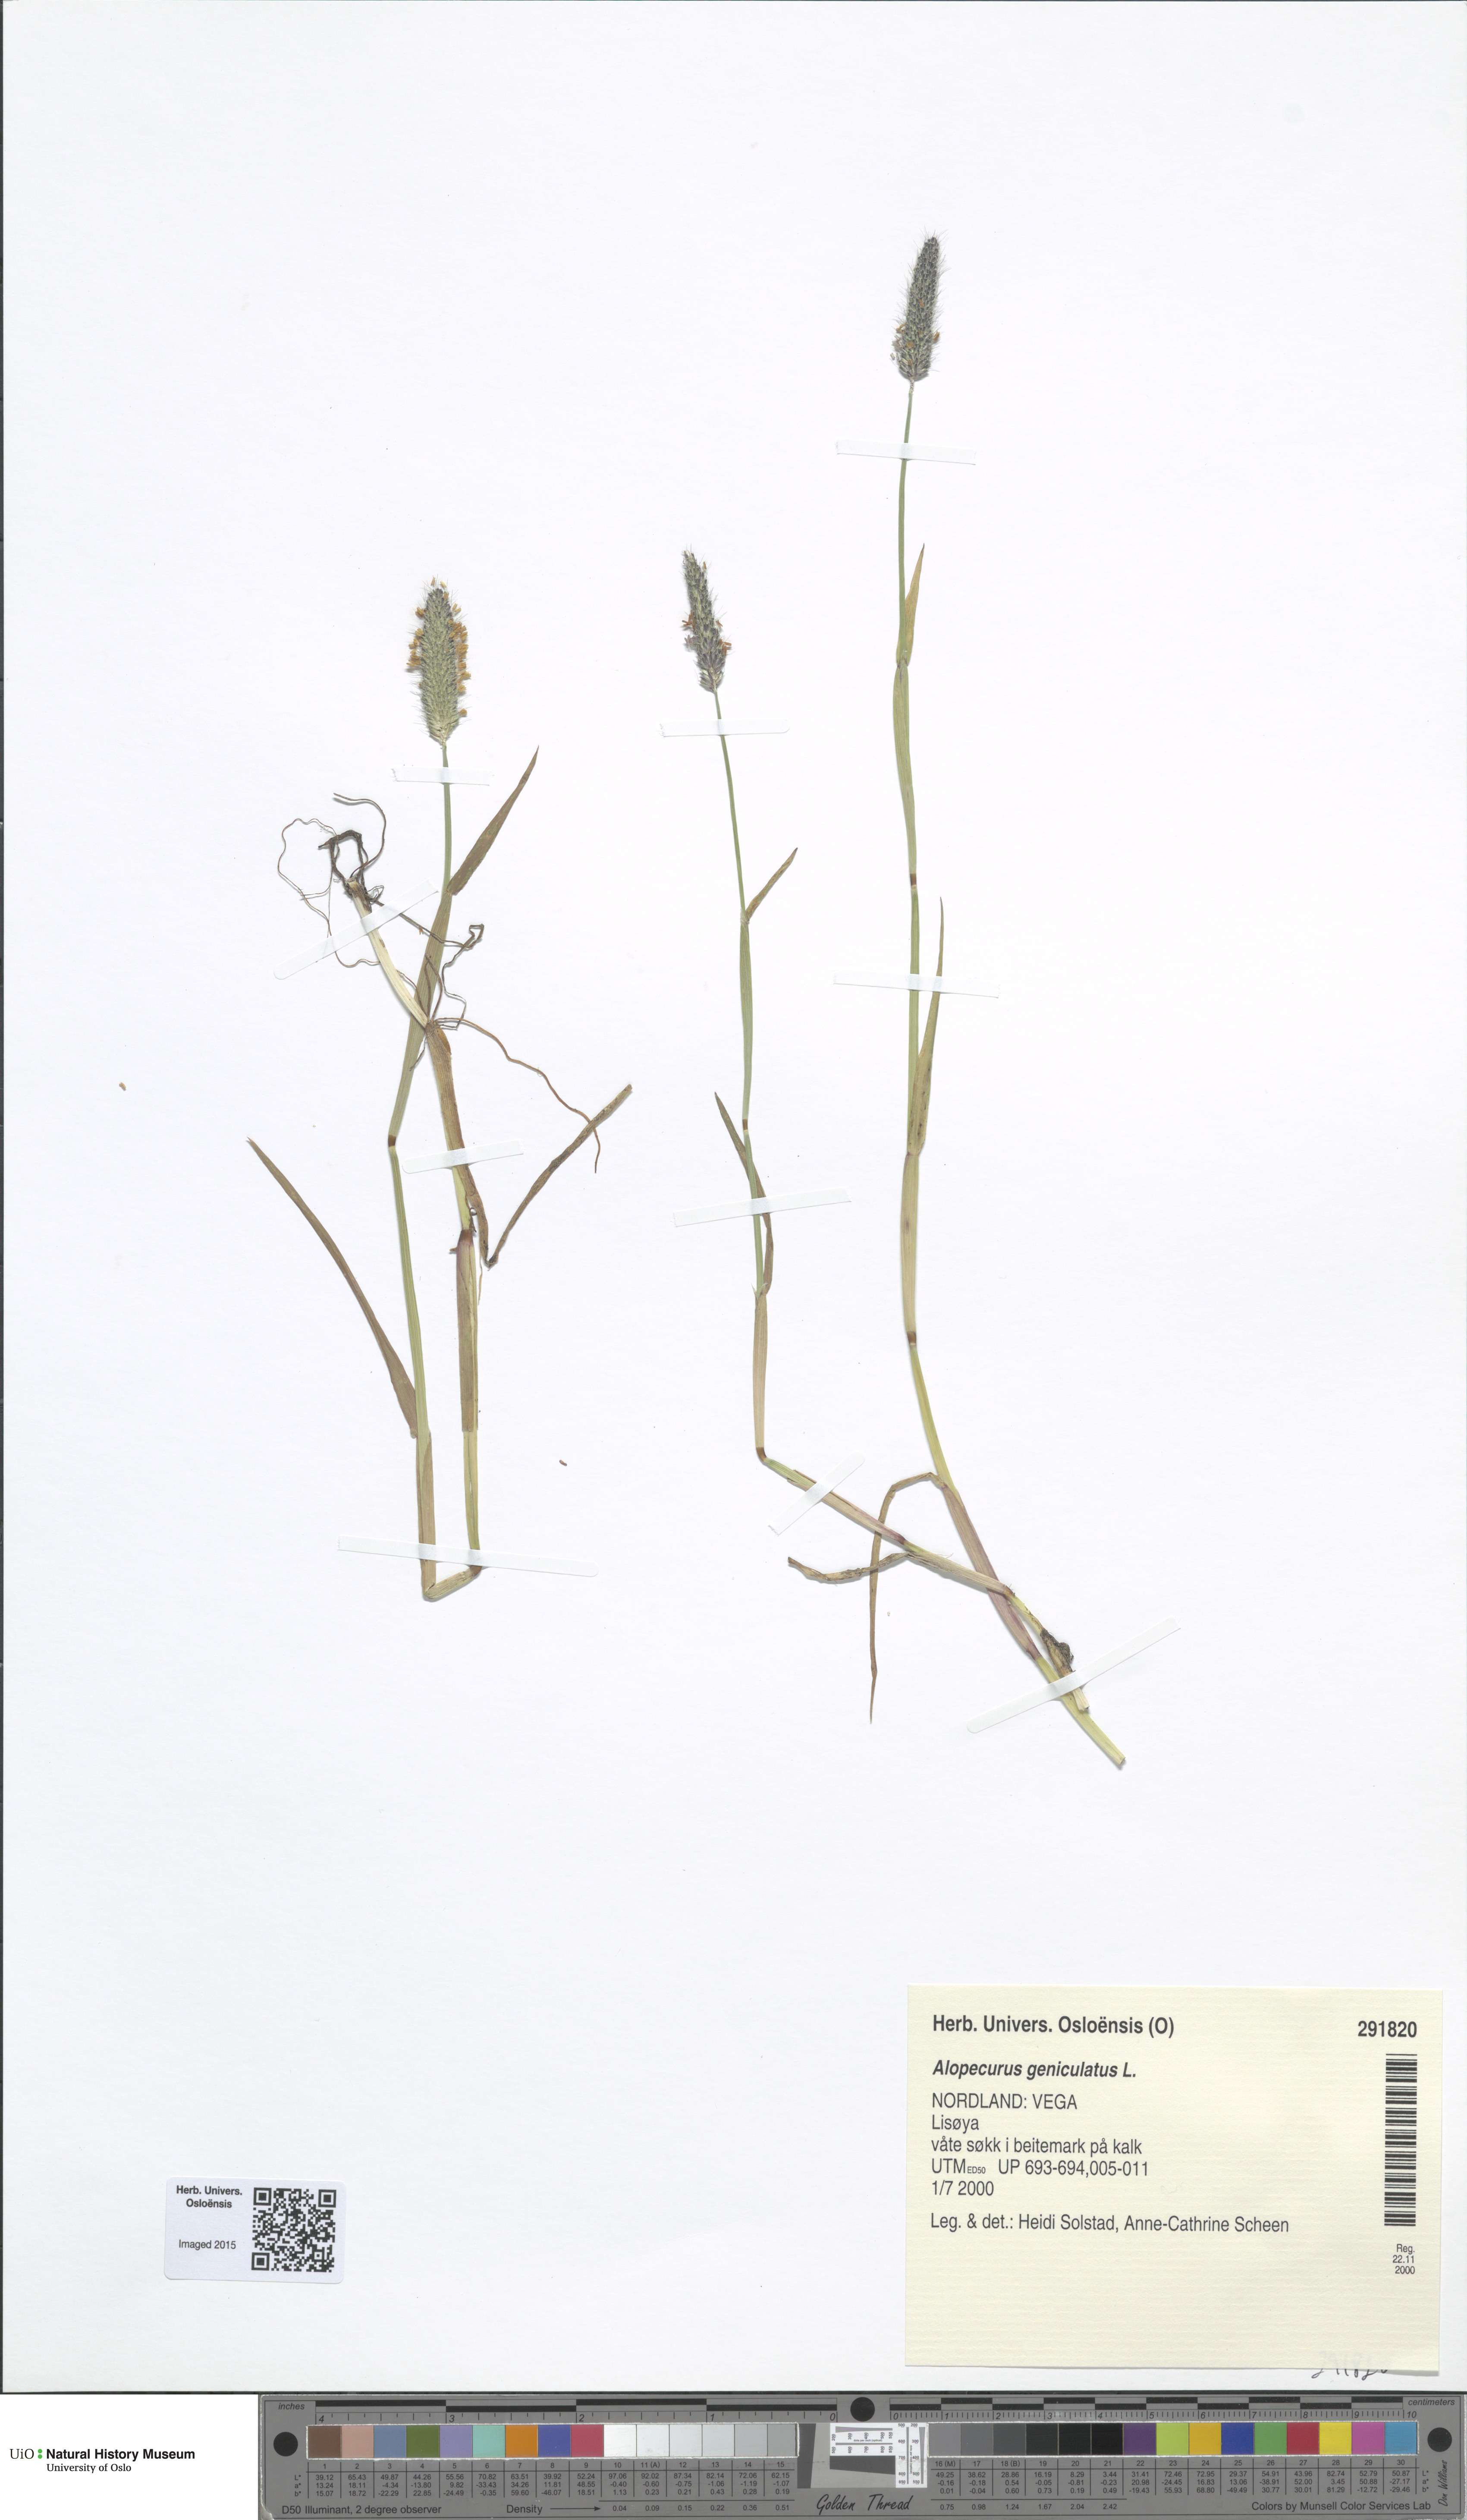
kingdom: Plantae
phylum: Tracheophyta
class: Liliopsida
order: Poales
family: Poaceae
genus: Alopecurus
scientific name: Alopecurus geniculatus
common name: Water foxtail
